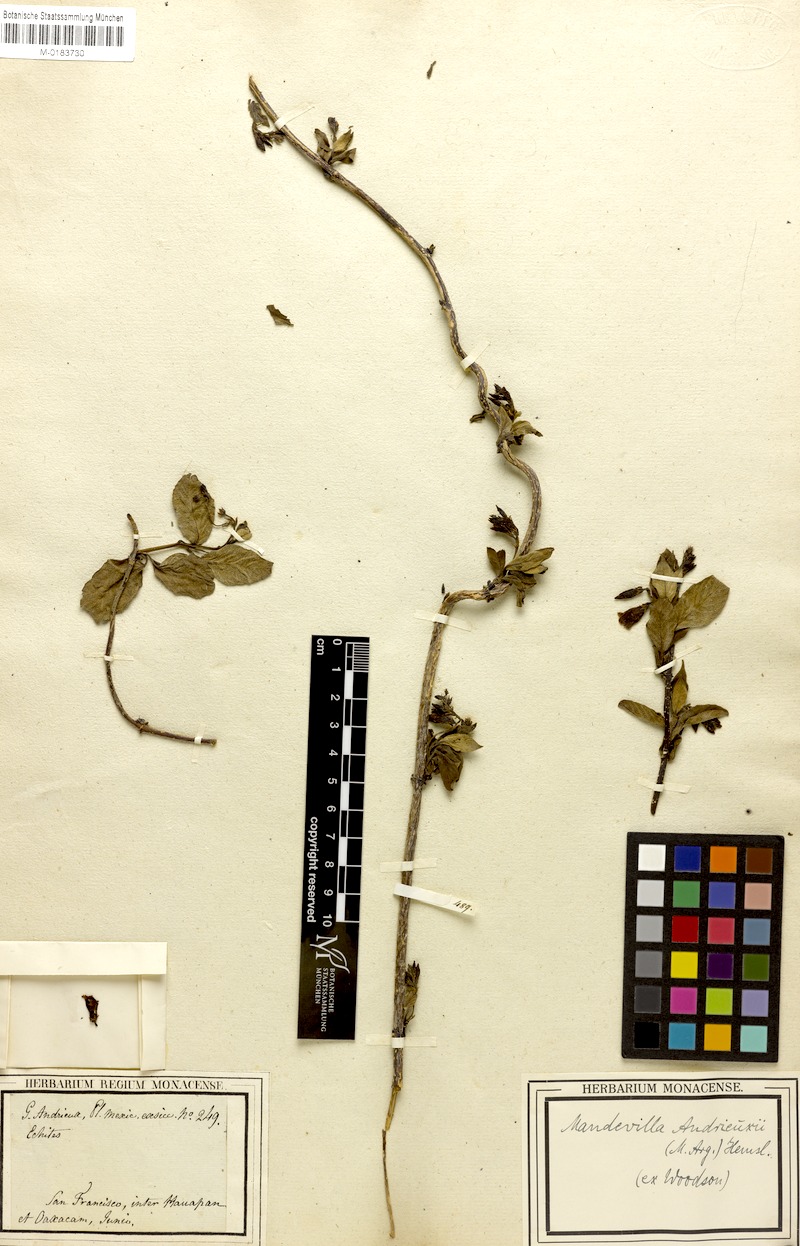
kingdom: Plantae
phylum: Tracheophyta
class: Magnoliopsida
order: Gentianales
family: Apocynaceae
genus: Mandevilla
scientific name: Mandevilla andrieuxii
